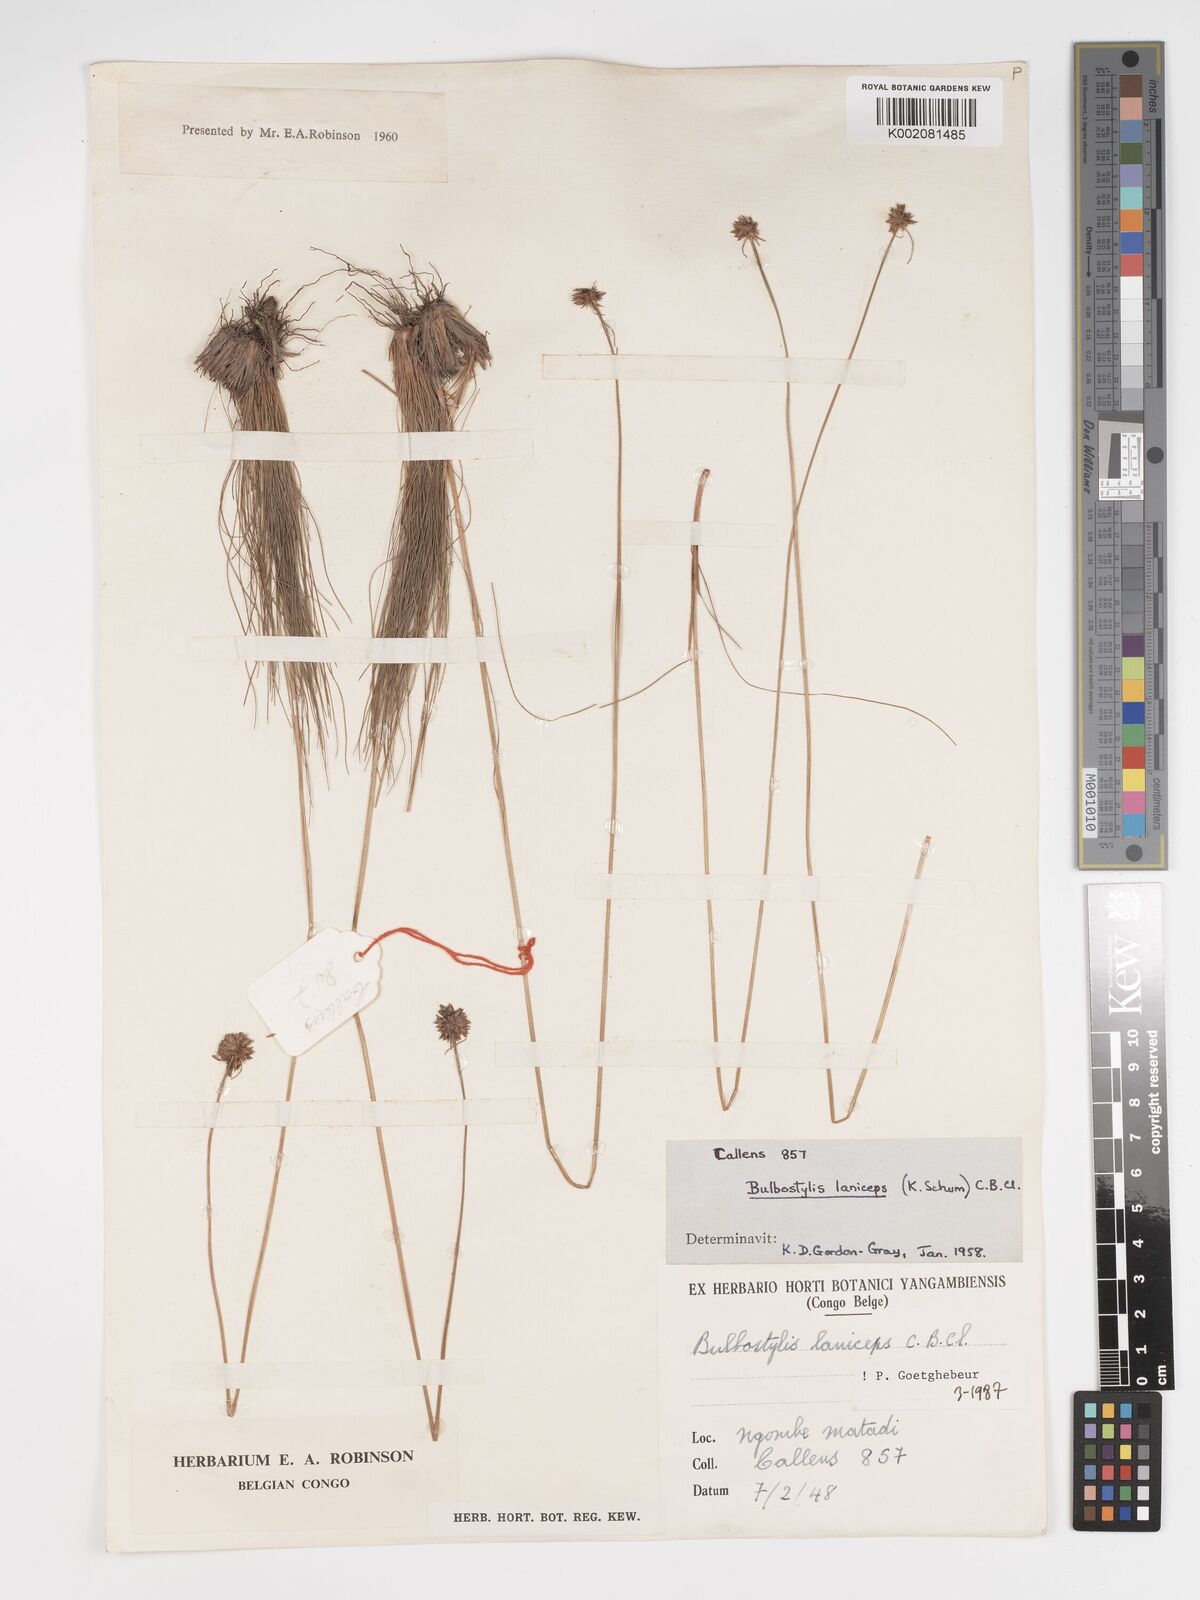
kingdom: Plantae
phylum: Tracheophyta
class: Liliopsida
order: Poales
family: Cyperaceae
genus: Bulbostylis
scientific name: Bulbostylis laniceps
